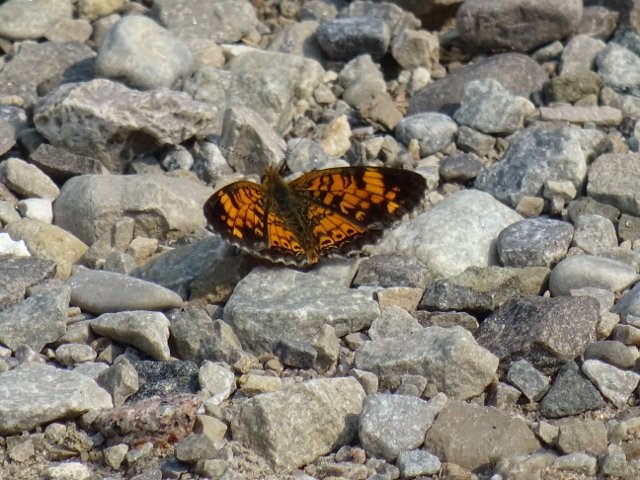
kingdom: Animalia
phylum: Arthropoda
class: Insecta
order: Lepidoptera
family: Nymphalidae
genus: Phyciodes
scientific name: Phyciodes tharos
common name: Pearl Crescent
